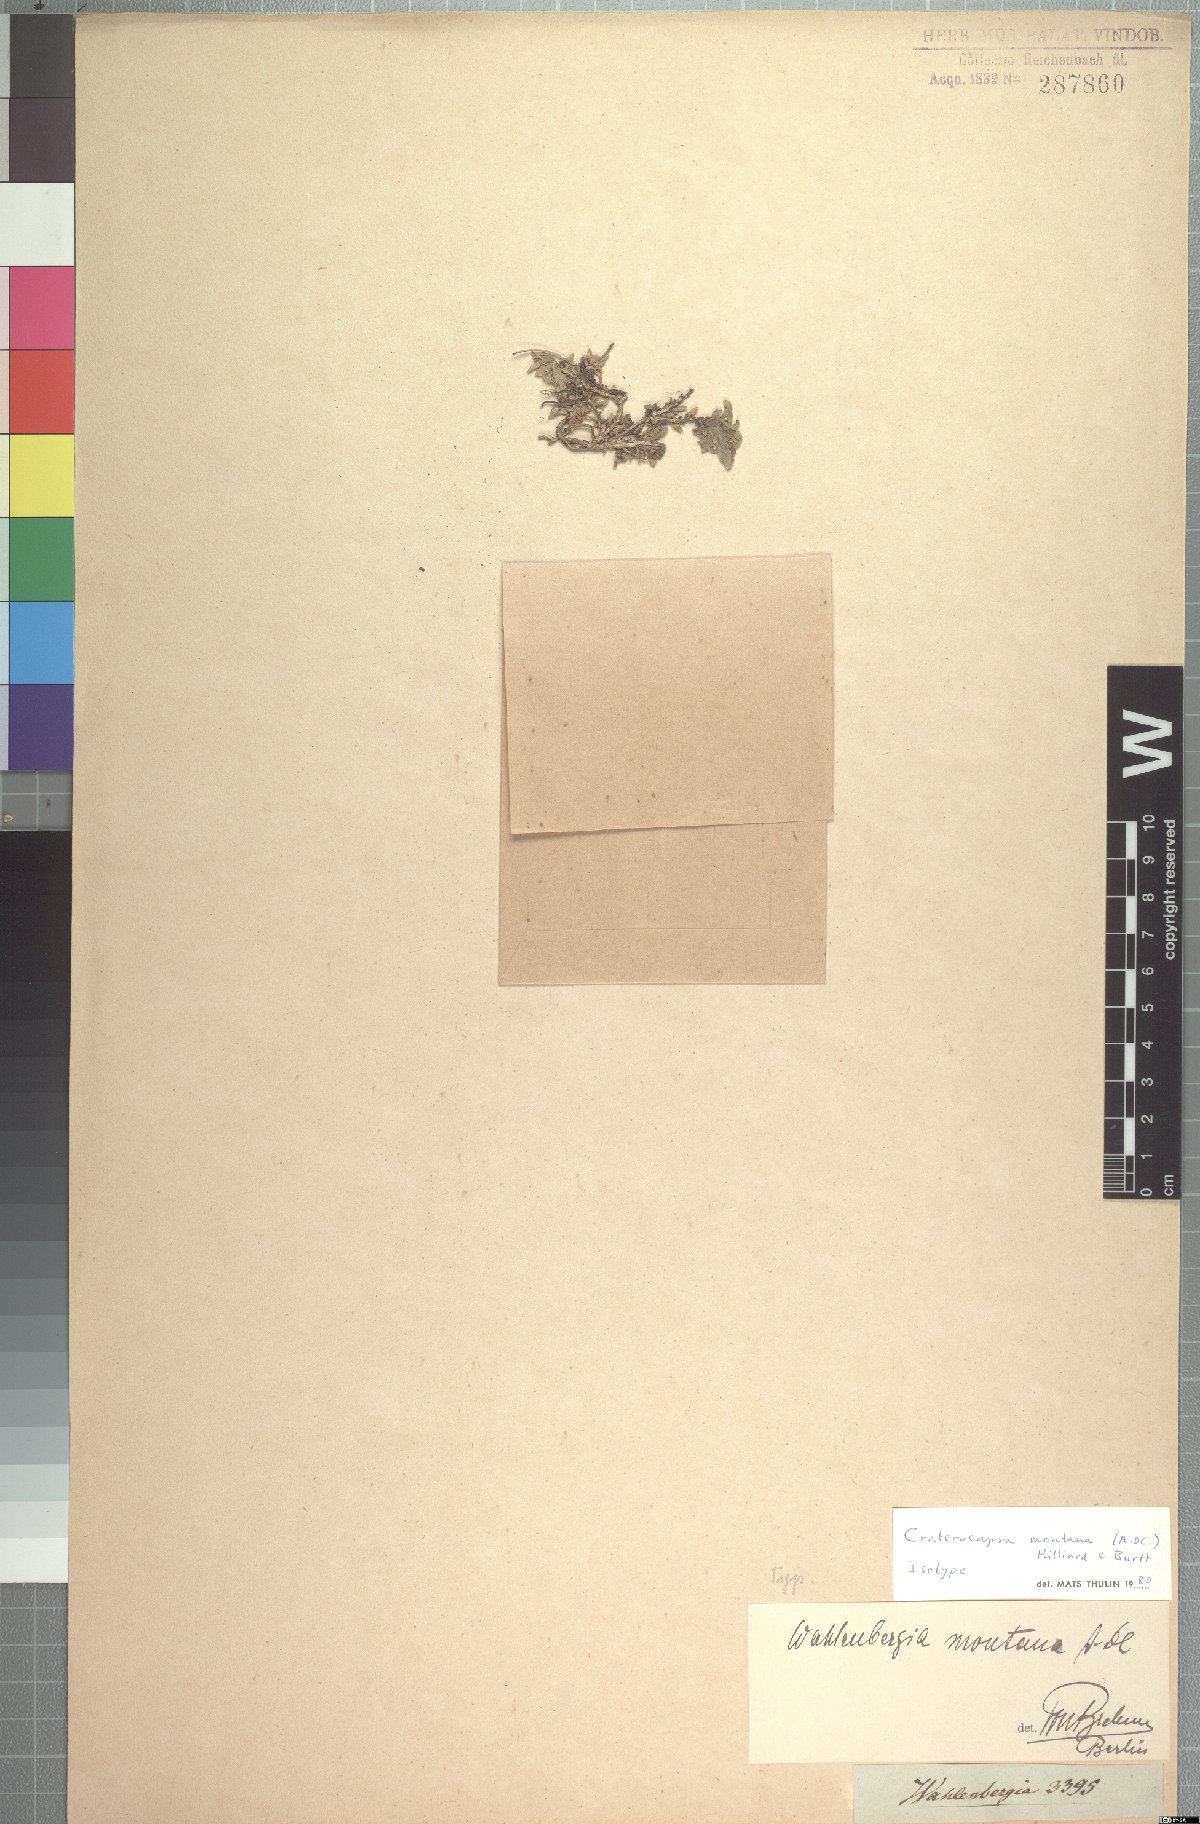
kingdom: Plantae
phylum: Tracheophyta
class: Magnoliopsida
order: Asterales
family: Campanulaceae
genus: Craterocapsa
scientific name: Craterocapsa montana
